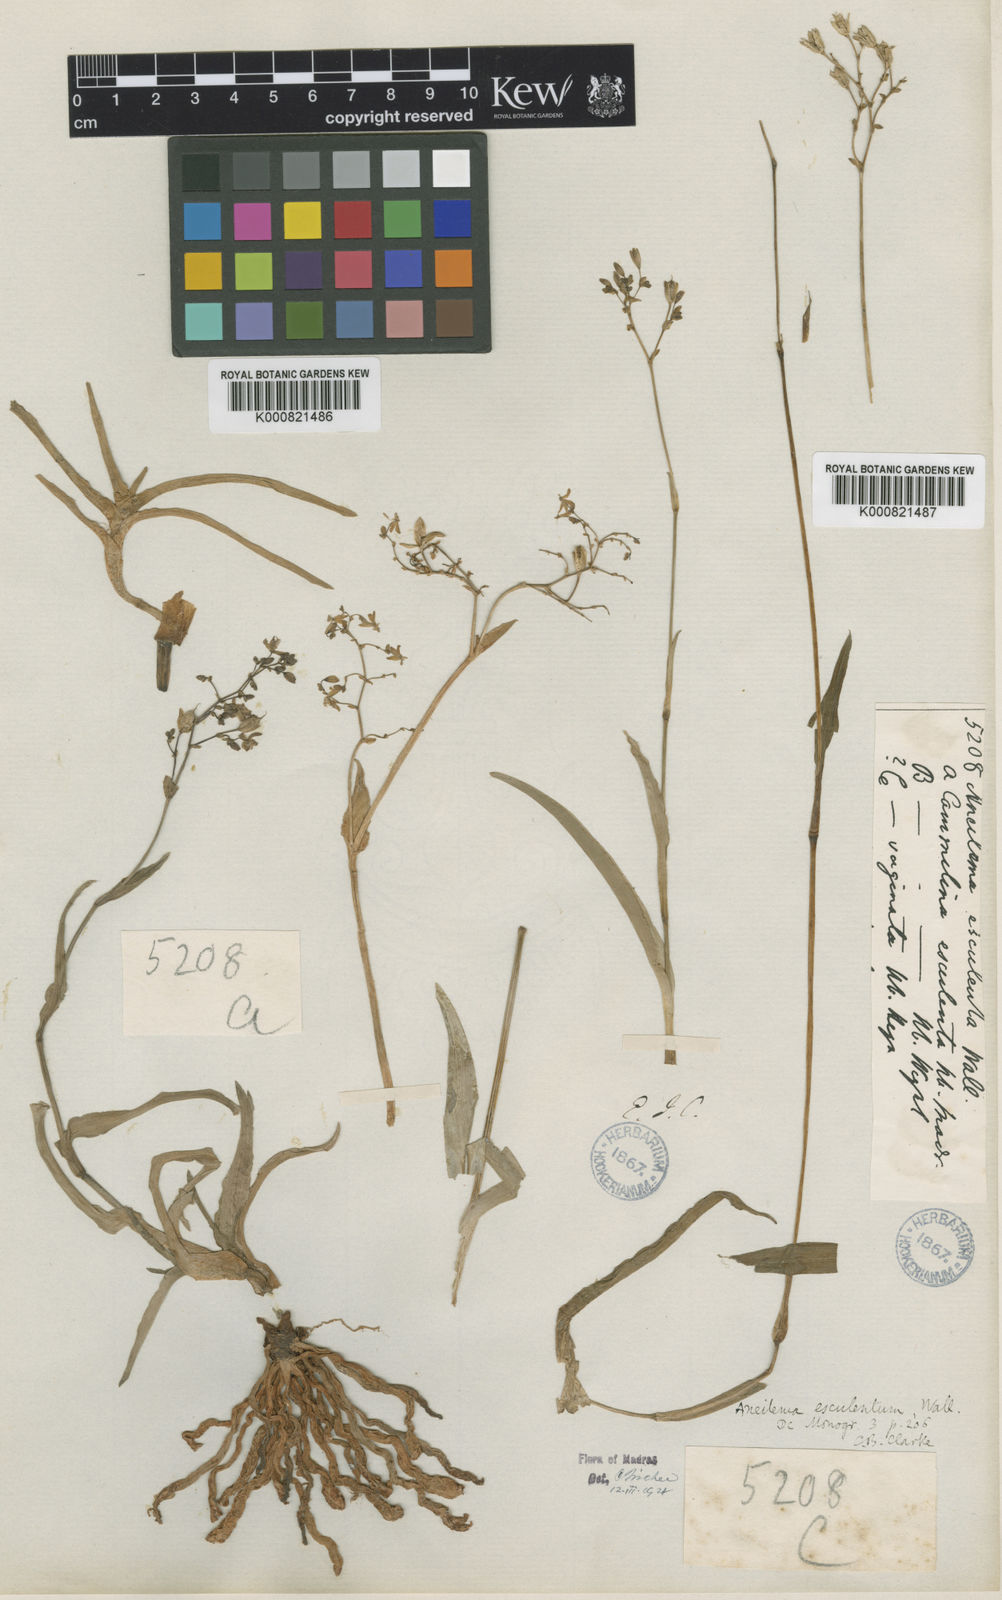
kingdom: Plantae
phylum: Tracheophyta
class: Liliopsida
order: Commelinales
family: Commelinaceae
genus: Murdannia
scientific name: Murdannia esculenta
